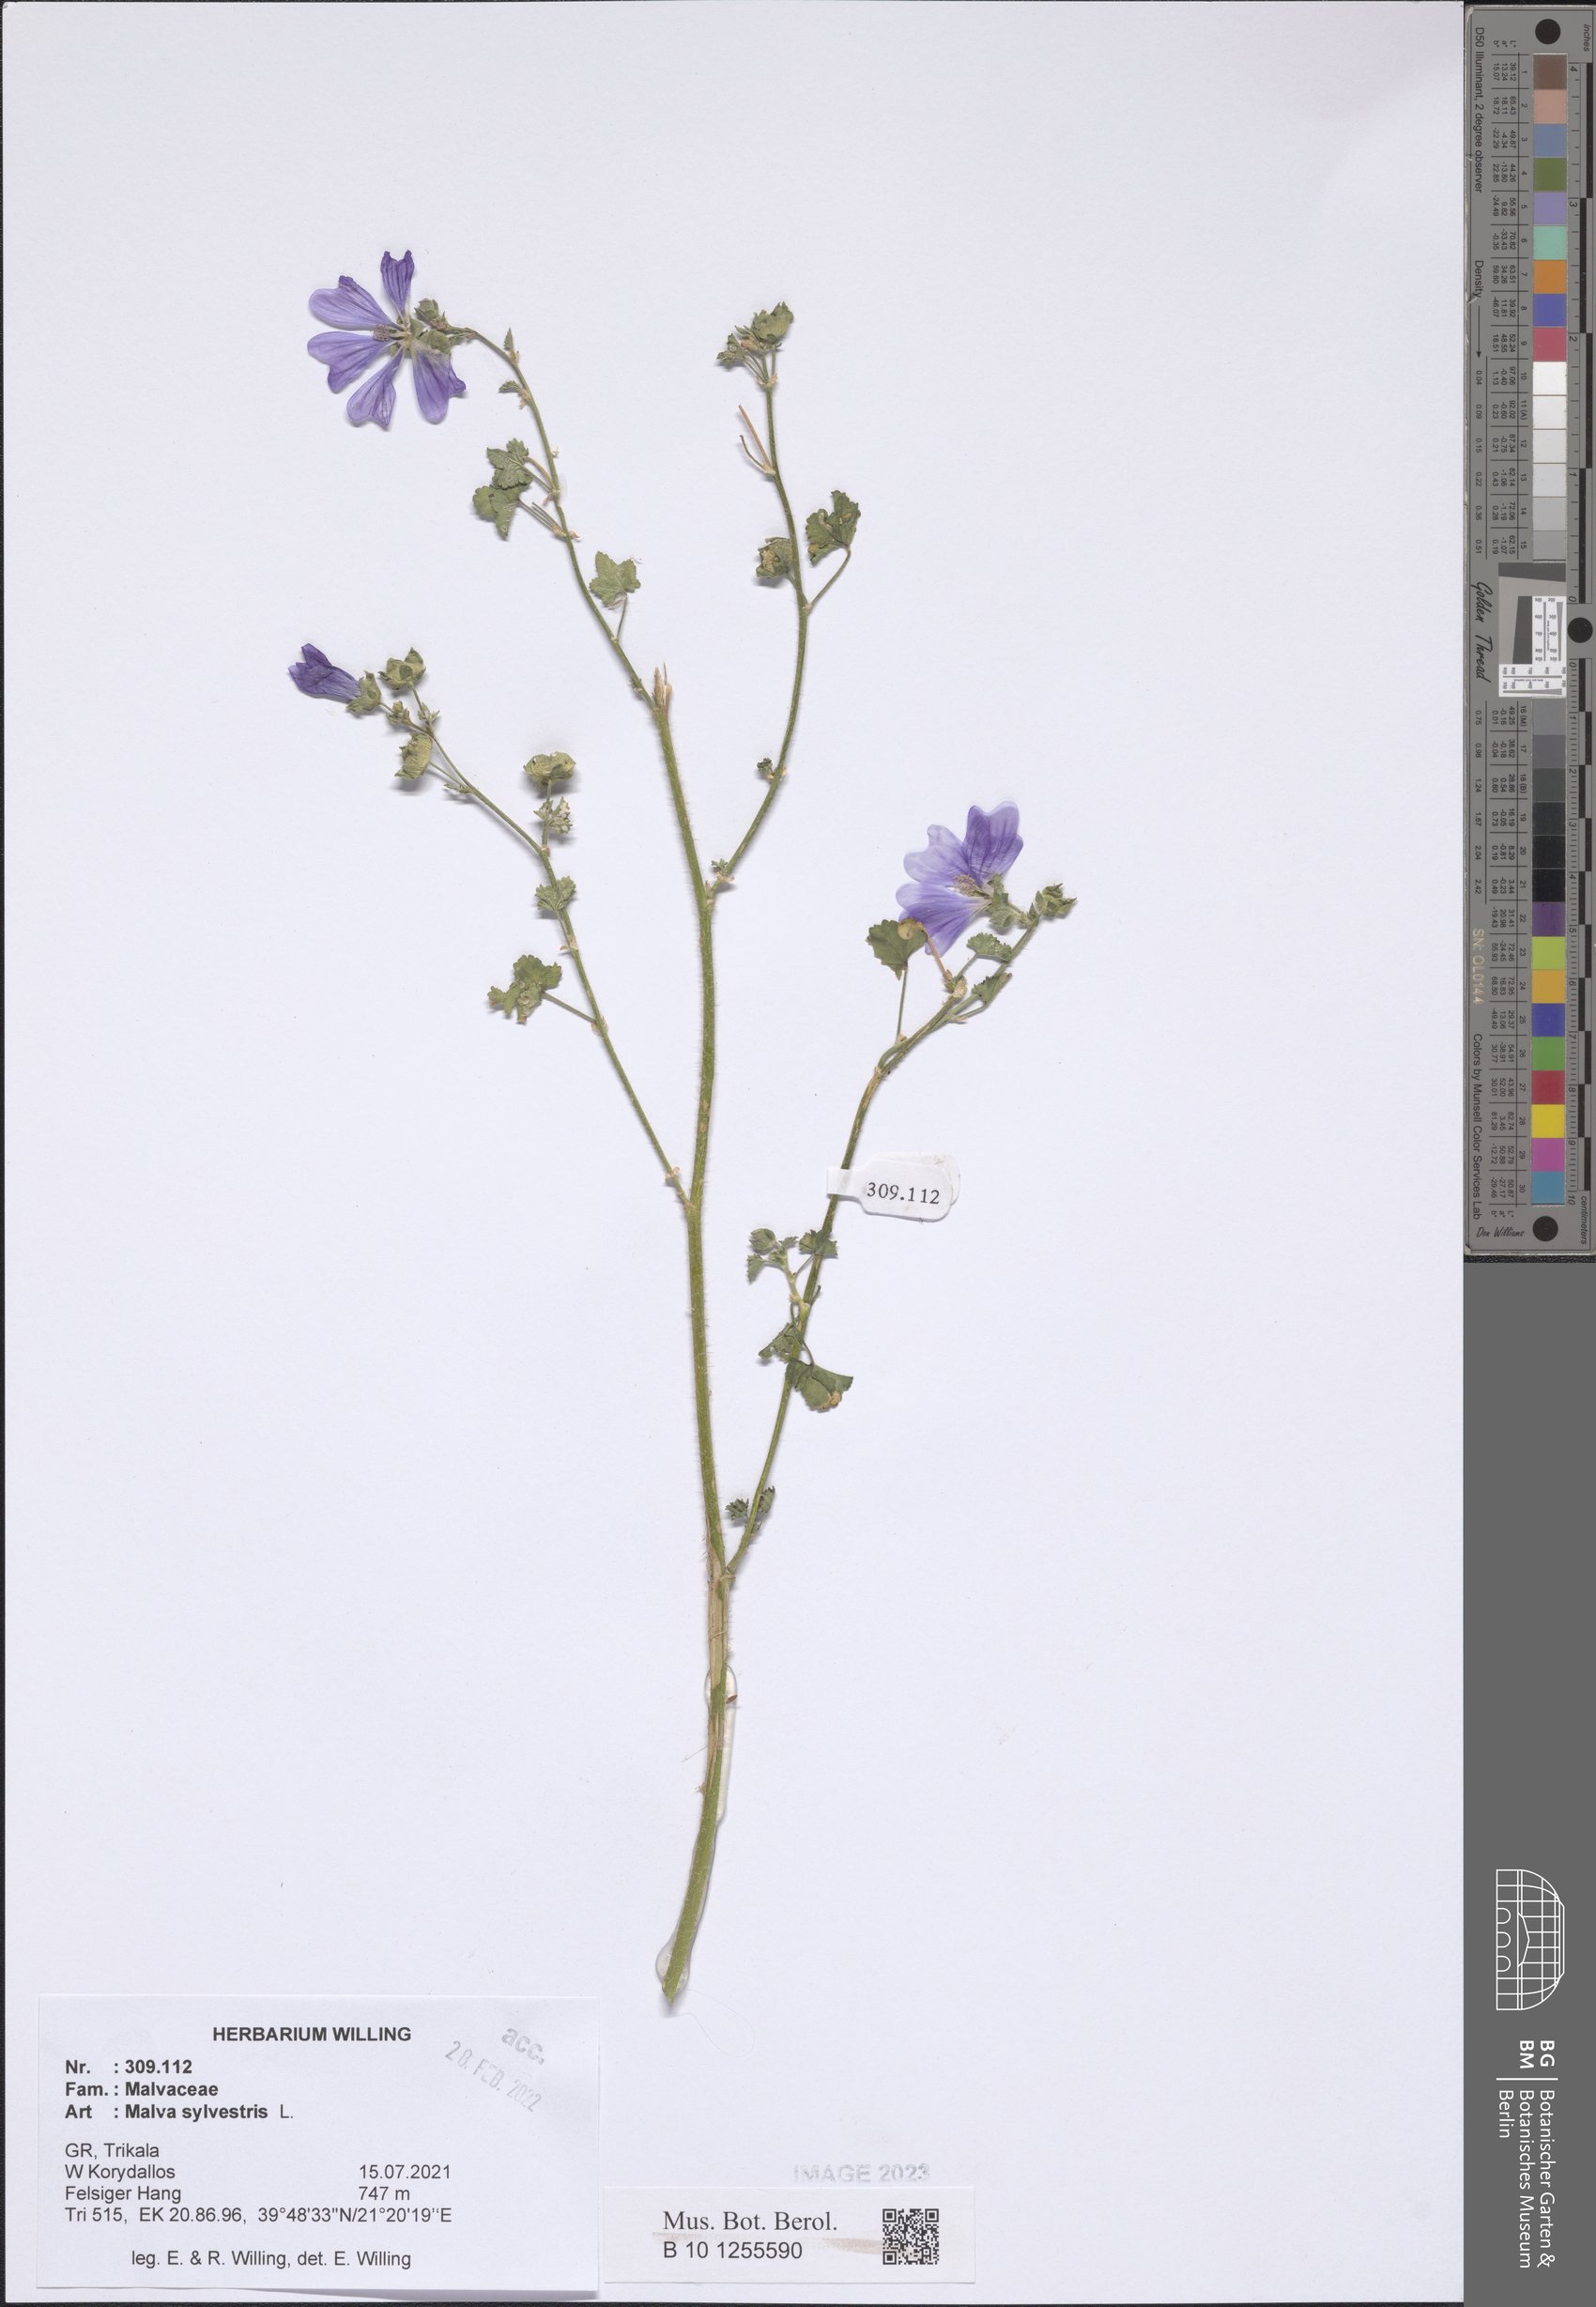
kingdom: Plantae
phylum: Tracheophyta
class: Magnoliopsida
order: Malvales
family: Malvaceae
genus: Malva
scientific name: Malva sylvestris
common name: Common mallow
